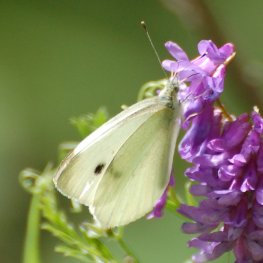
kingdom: Animalia
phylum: Arthropoda
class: Insecta
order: Lepidoptera
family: Pieridae
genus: Pieris
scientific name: Pieris rapae
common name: Cabbage White
